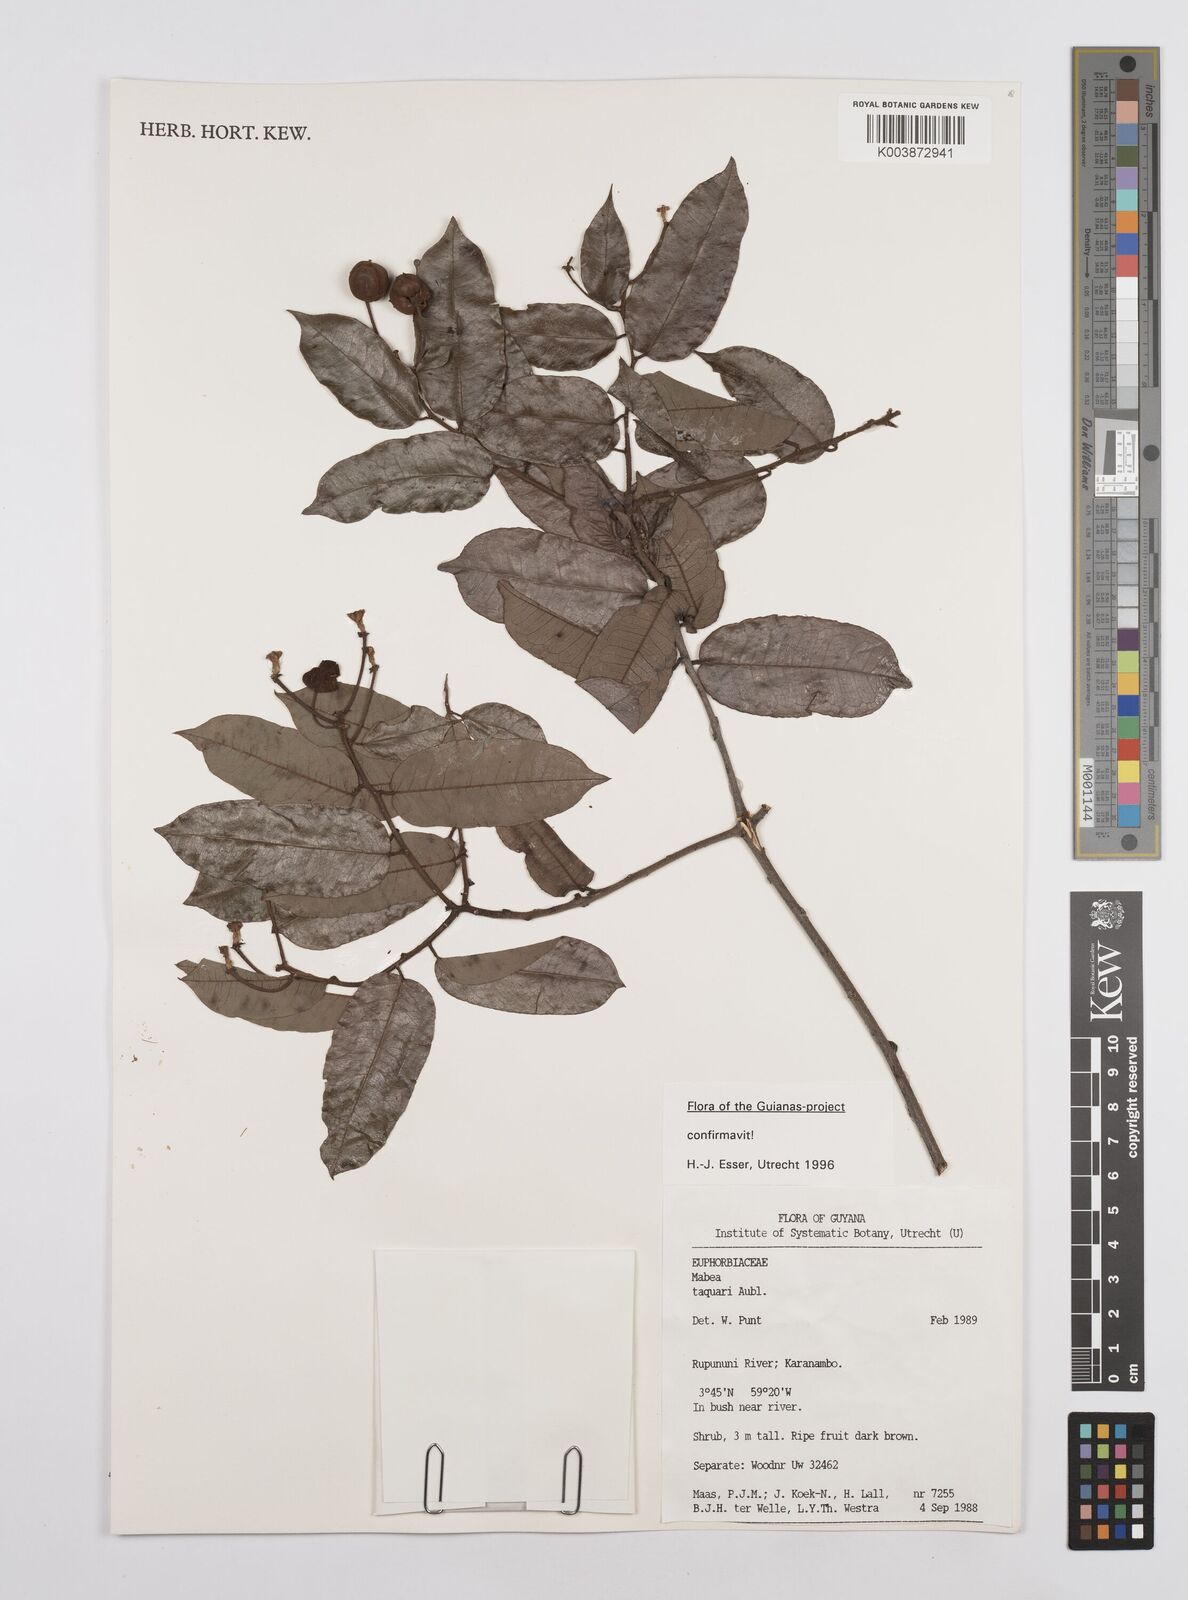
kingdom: Plantae
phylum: Tracheophyta
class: Magnoliopsida
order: Malpighiales
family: Euphorbiaceae
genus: Mabea
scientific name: Mabea taquari
